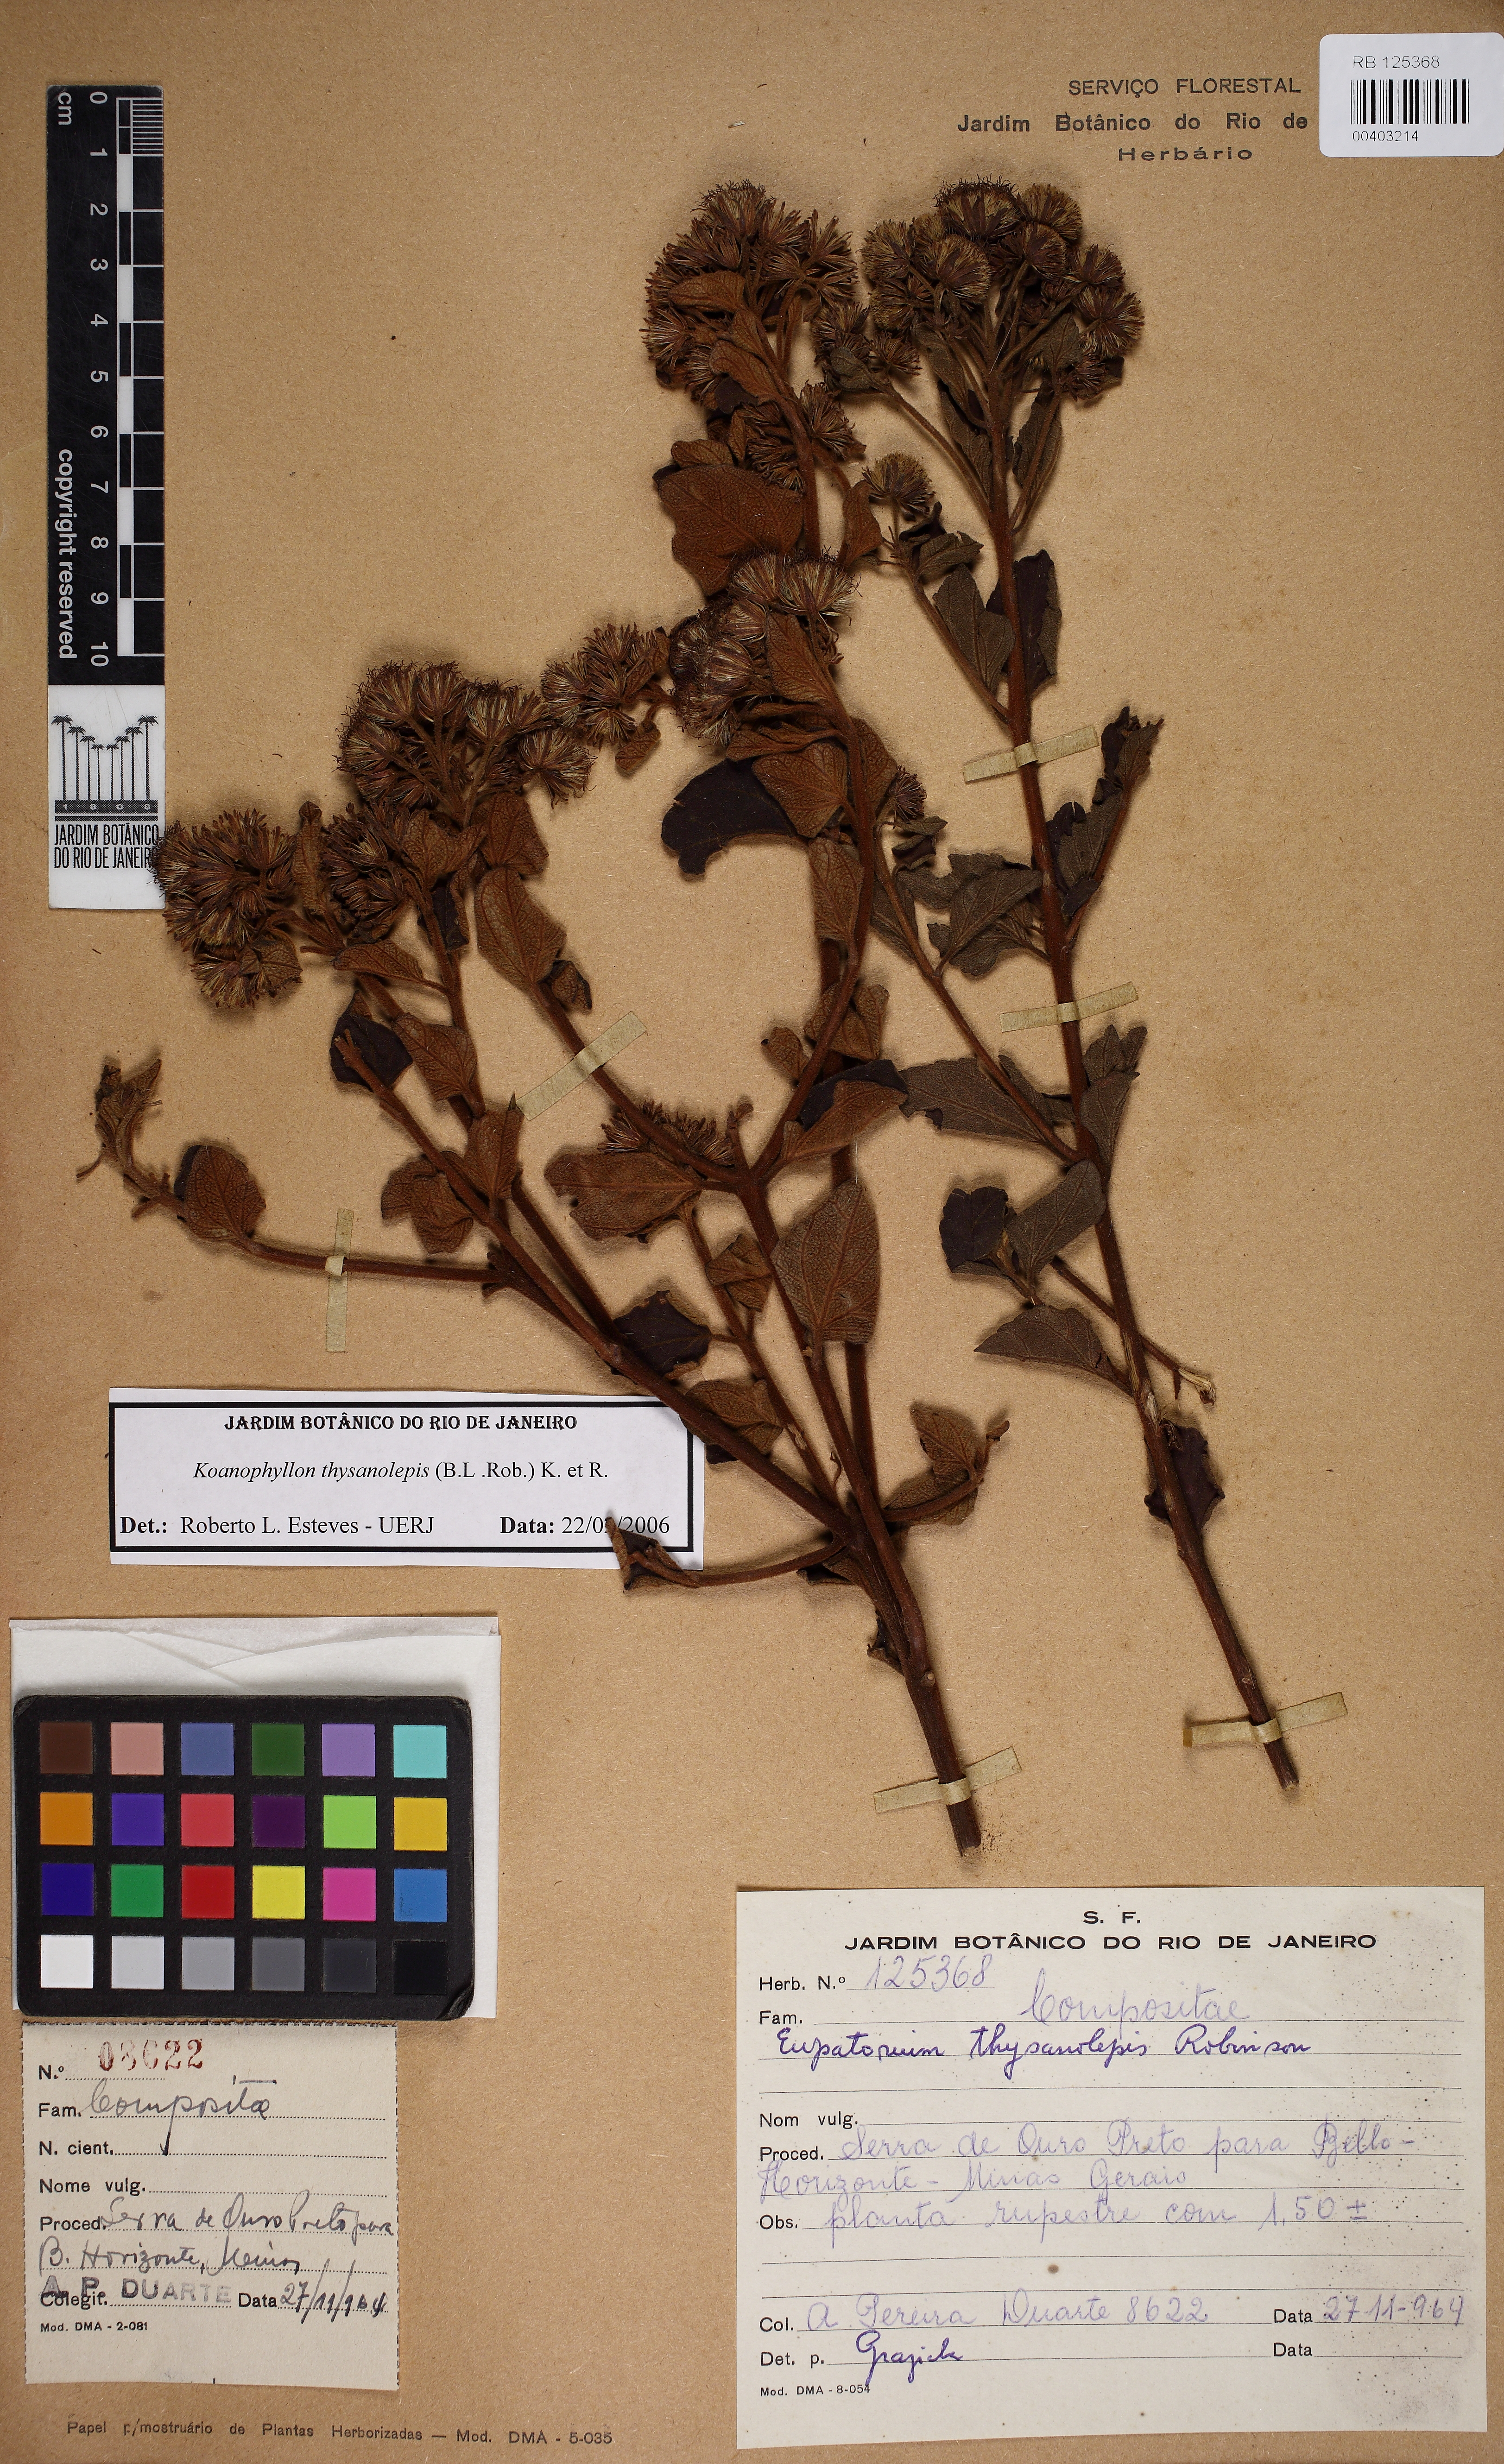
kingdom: Plantae
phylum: Tracheophyta
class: Magnoliopsida
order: Asterales
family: Asteraceae
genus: Koanophyllon
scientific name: Koanophyllon thysanolepis
